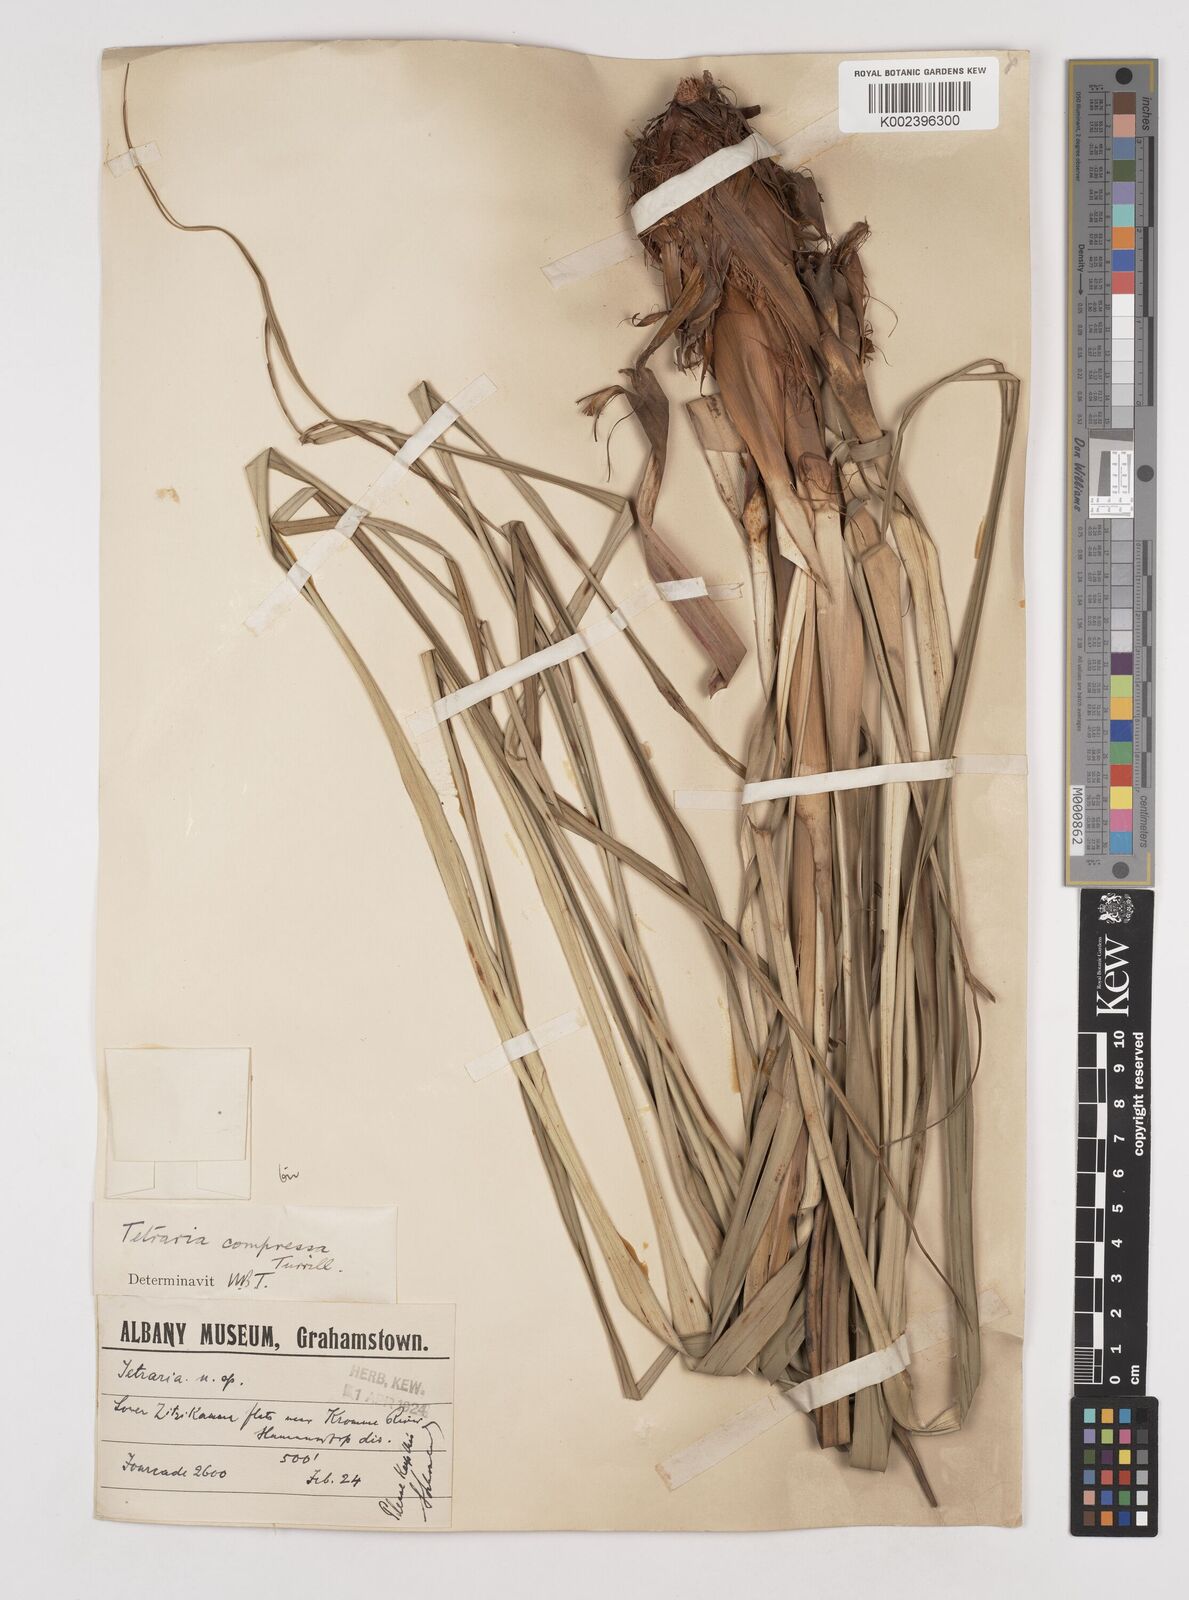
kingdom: Plantae
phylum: Tracheophyta
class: Liliopsida
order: Poales
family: Cyperaceae
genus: Tetraria
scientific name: Tetraria compressa
